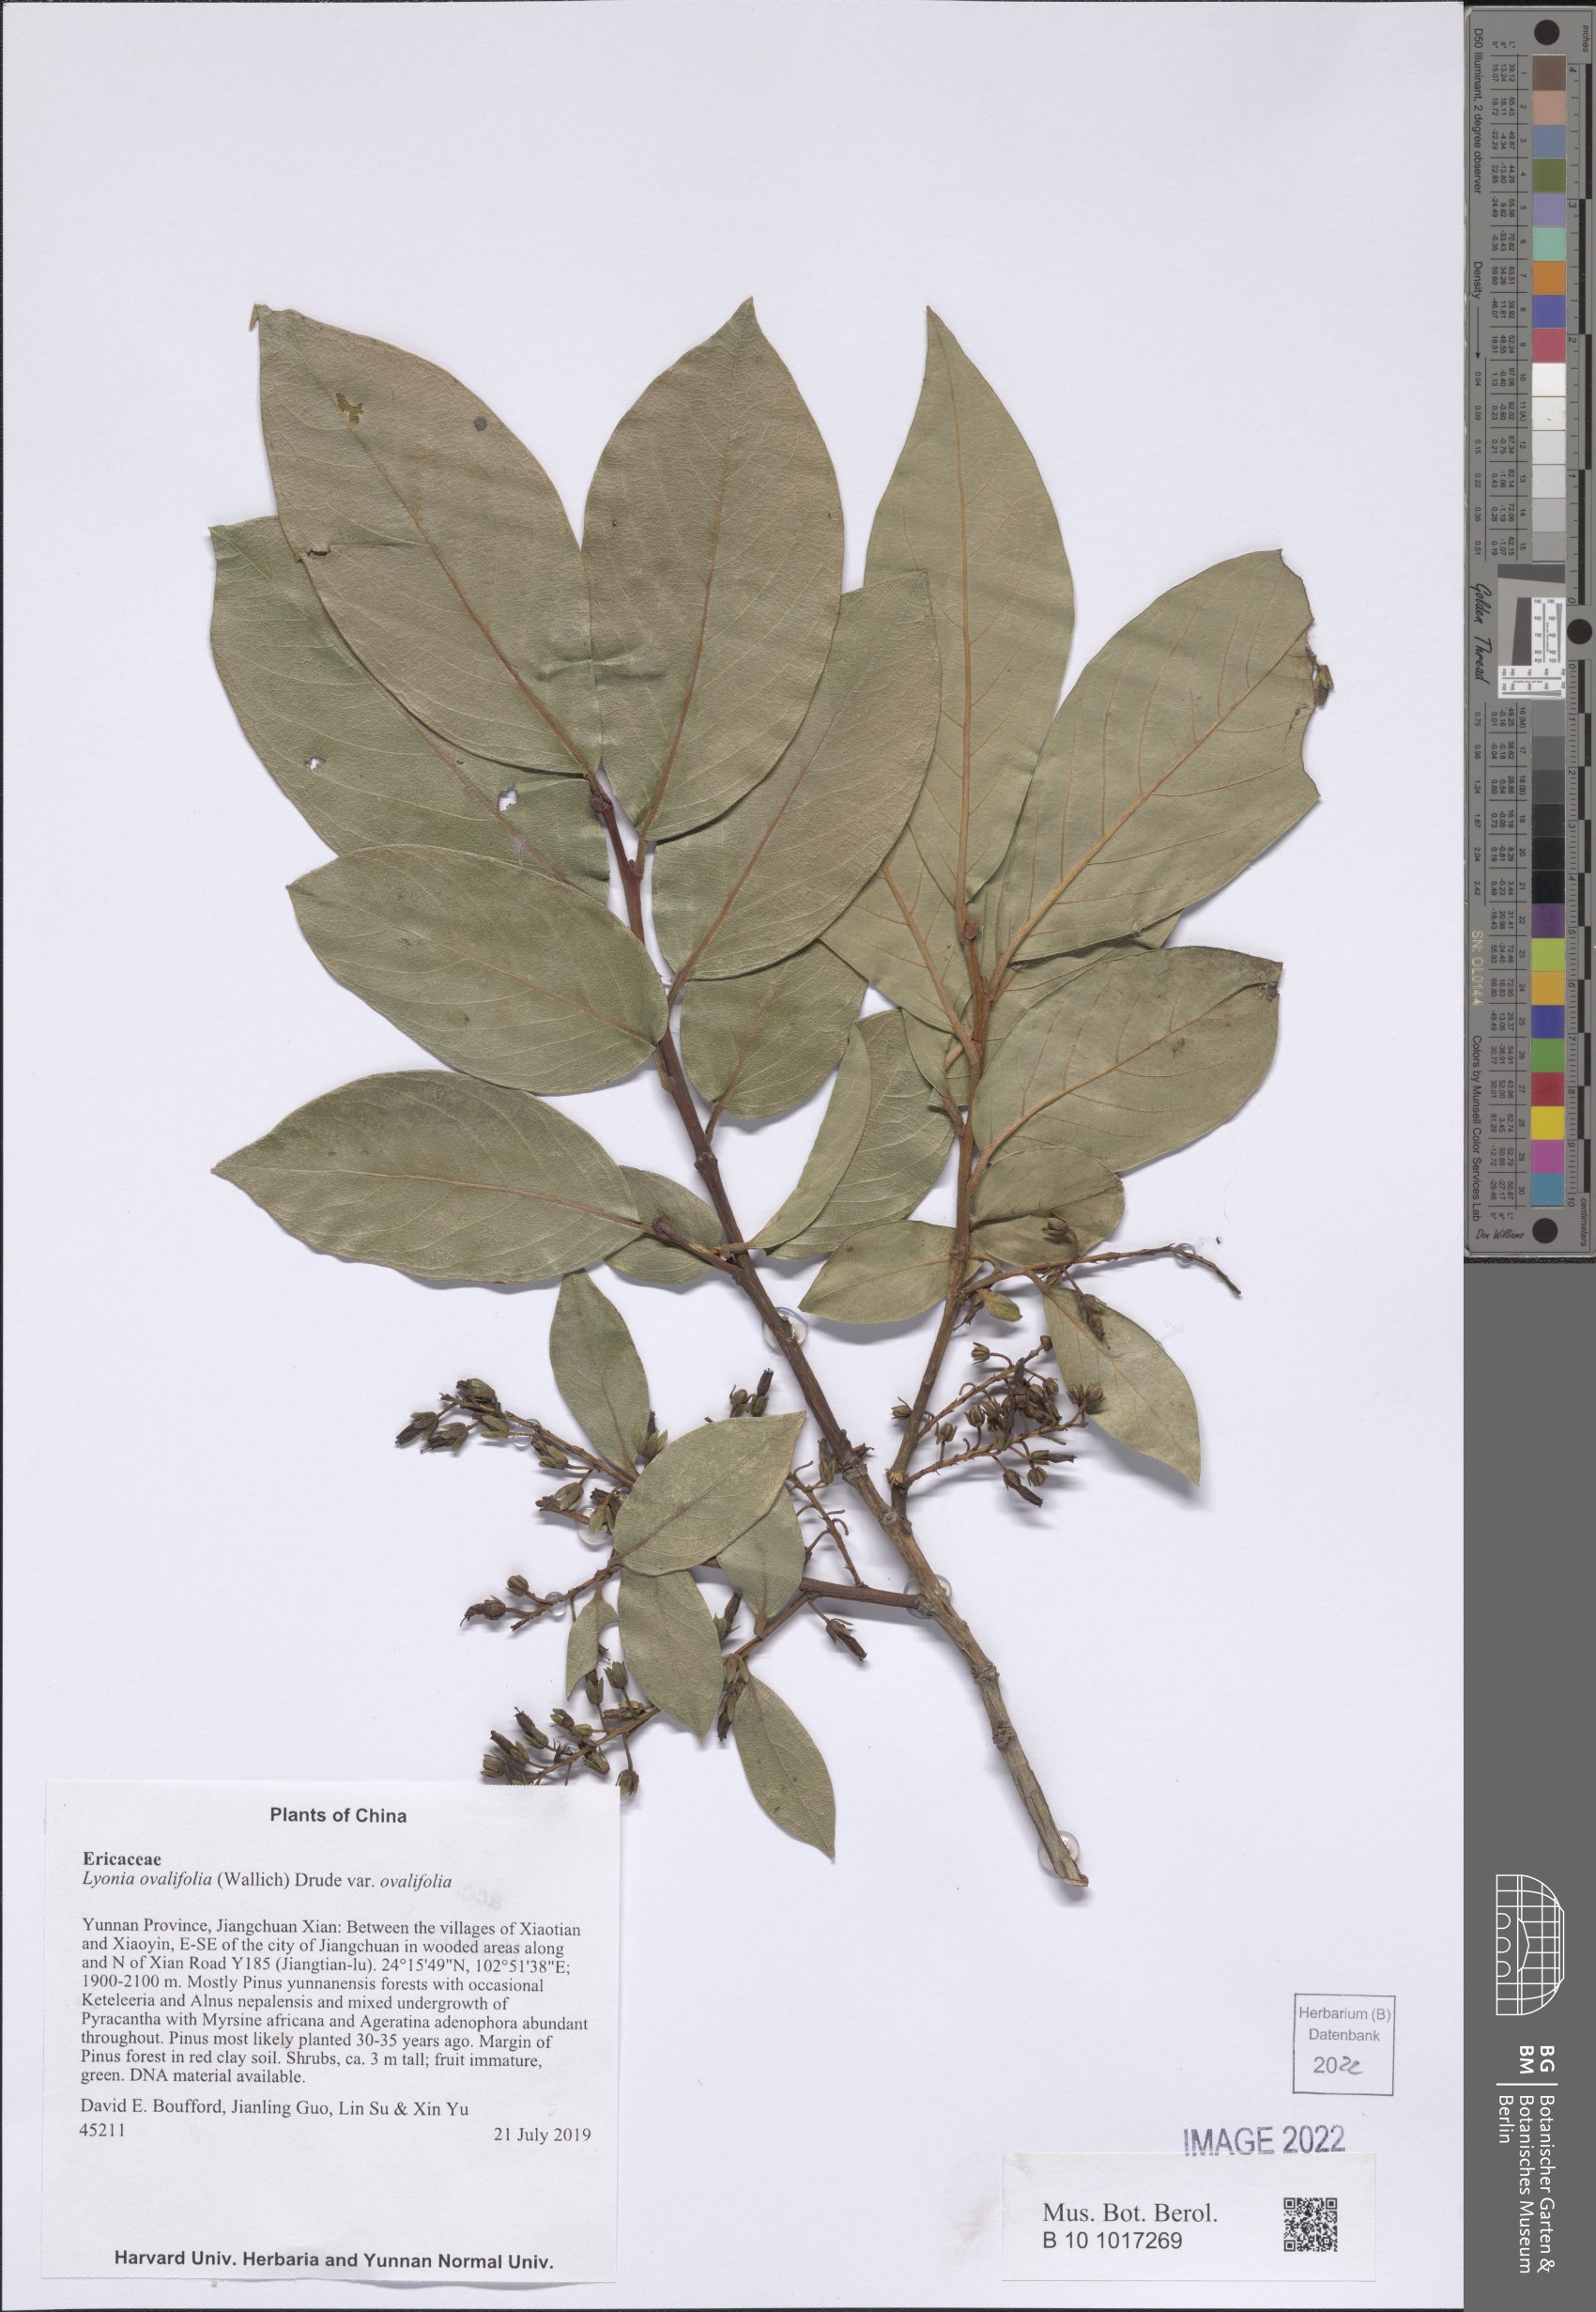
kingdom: Plantae
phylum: Tracheophyta
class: Magnoliopsida
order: Ericales
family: Ericaceae
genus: Lyonia
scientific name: Lyonia ovalifolia
